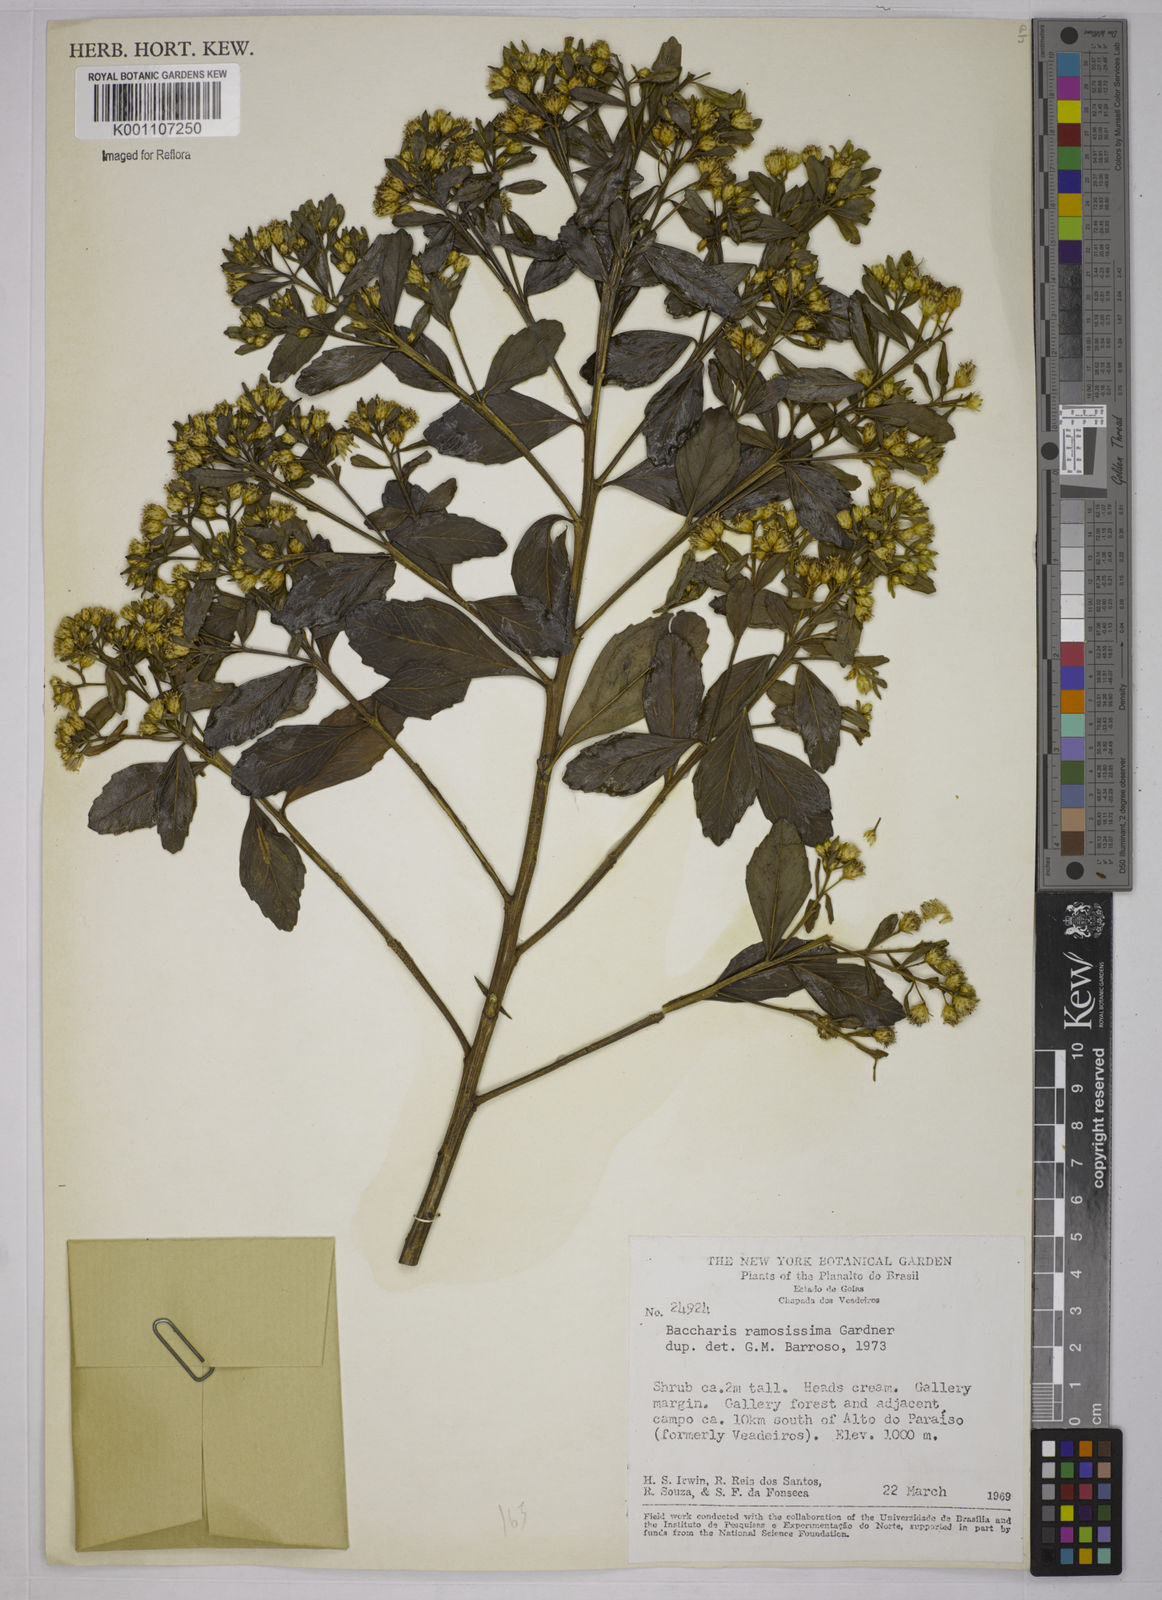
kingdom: Plantae
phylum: Tracheophyta
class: Magnoliopsida
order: Asterales
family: Asteraceae
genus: Baccharis
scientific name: Baccharis retusa
